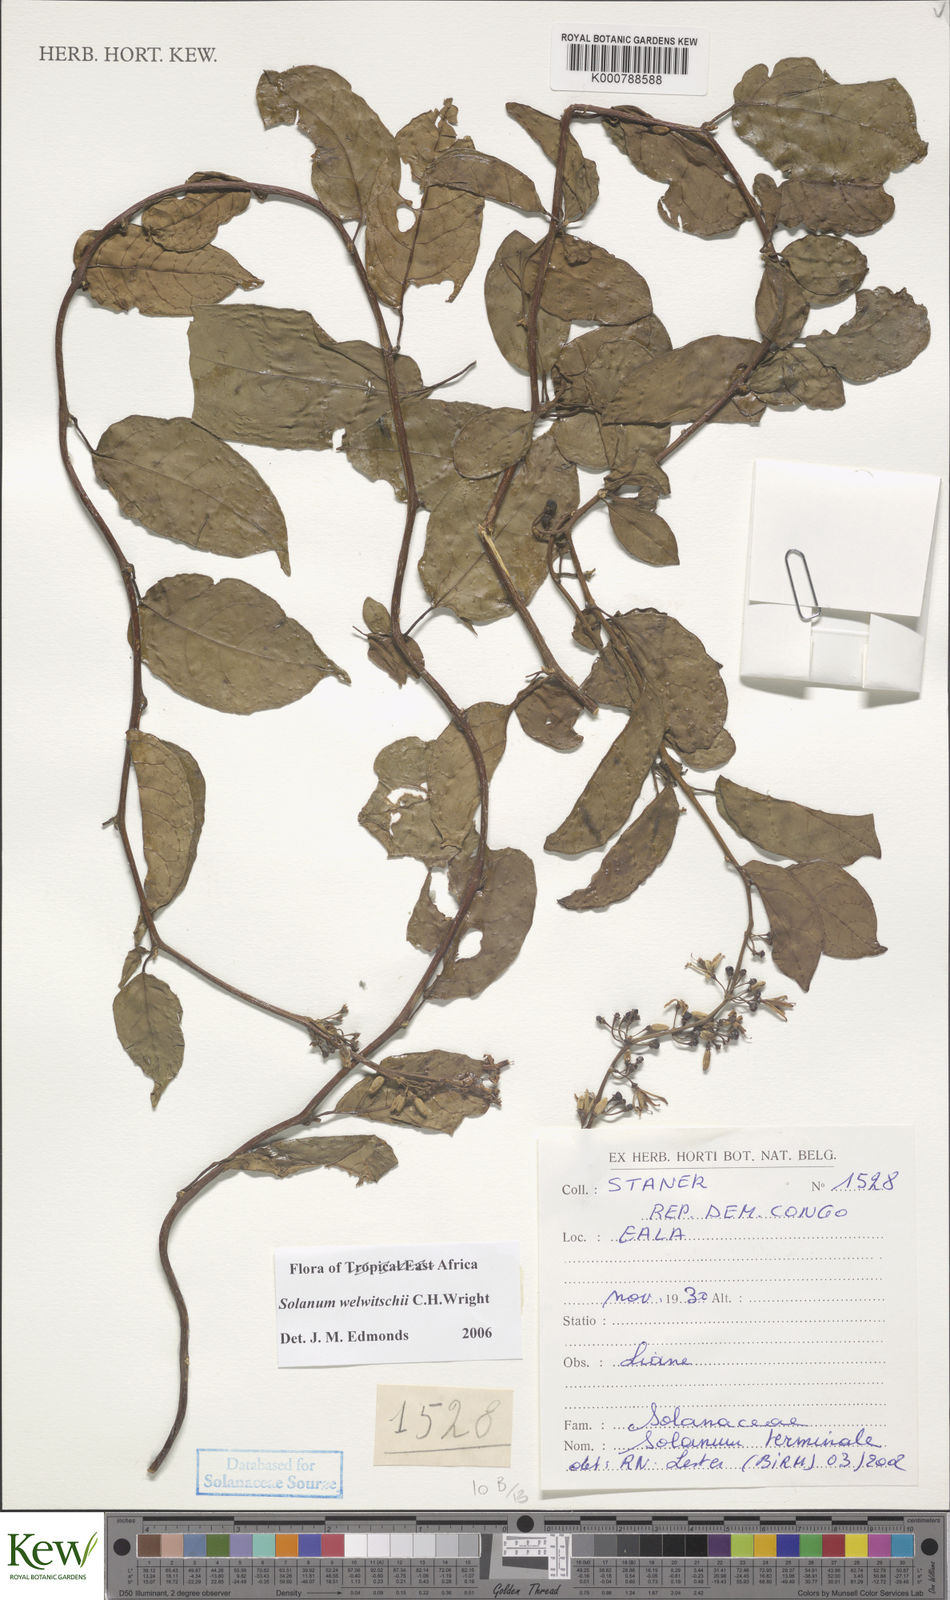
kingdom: Plantae
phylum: Tracheophyta
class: Magnoliopsida
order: Solanales
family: Solanaceae
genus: Solanum
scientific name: Solanum terminale
